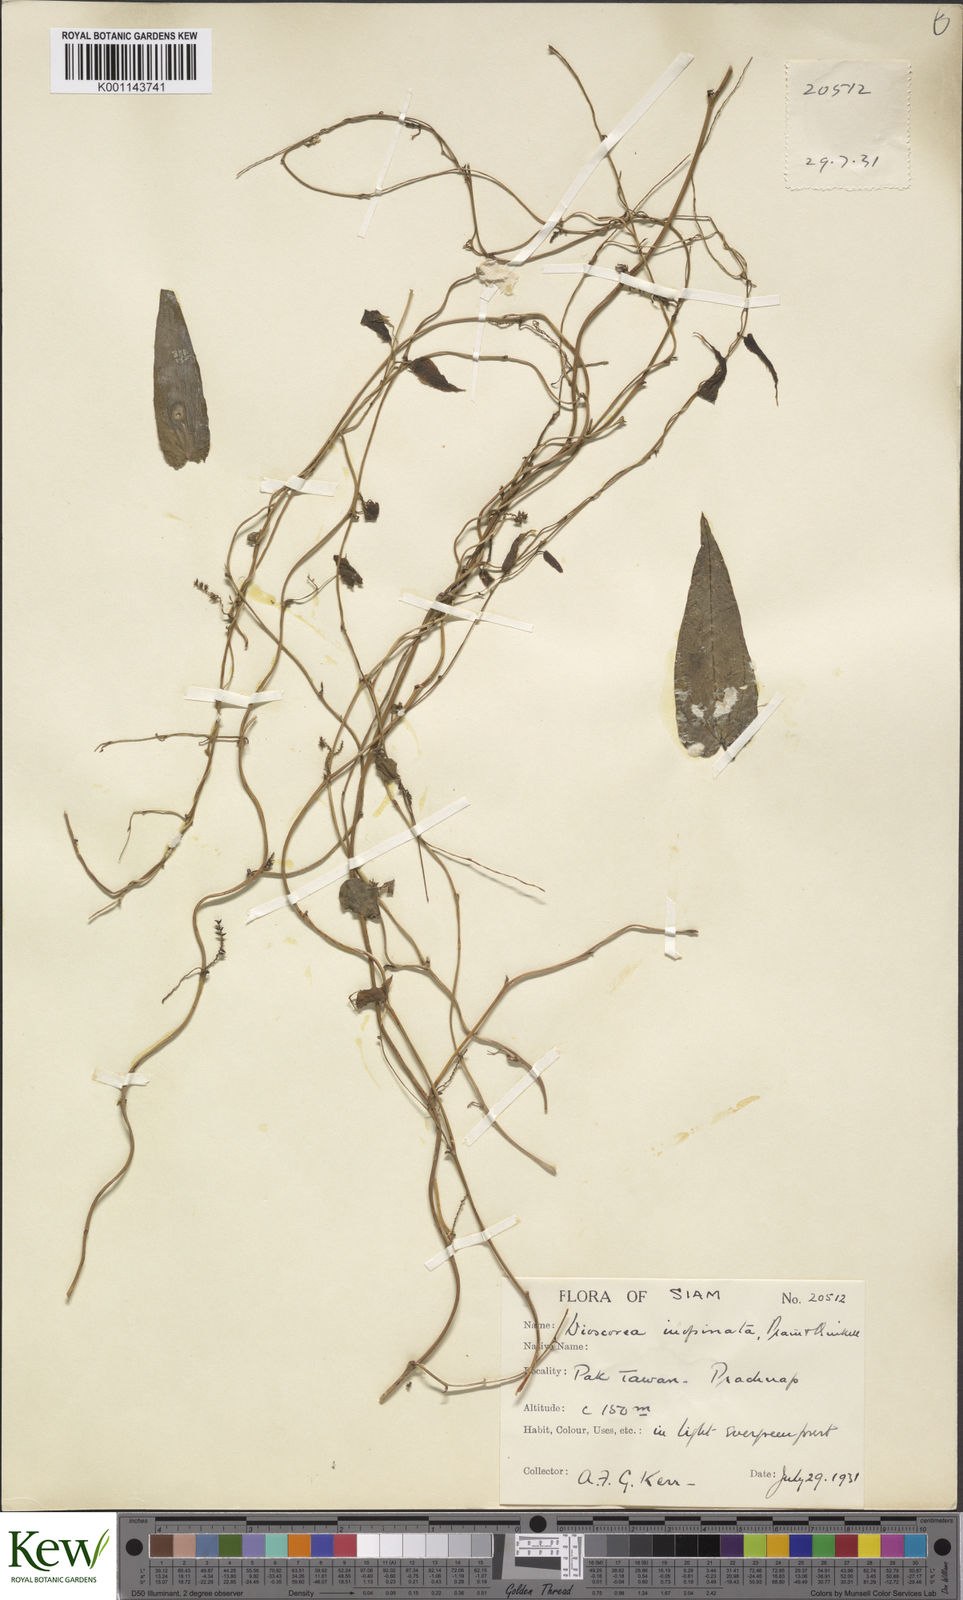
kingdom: Plantae
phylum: Tracheophyta
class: Liliopsida
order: Dioscoreales
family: Dioscoreaceae
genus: Dioscorea
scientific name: Dioscorea inopinata
